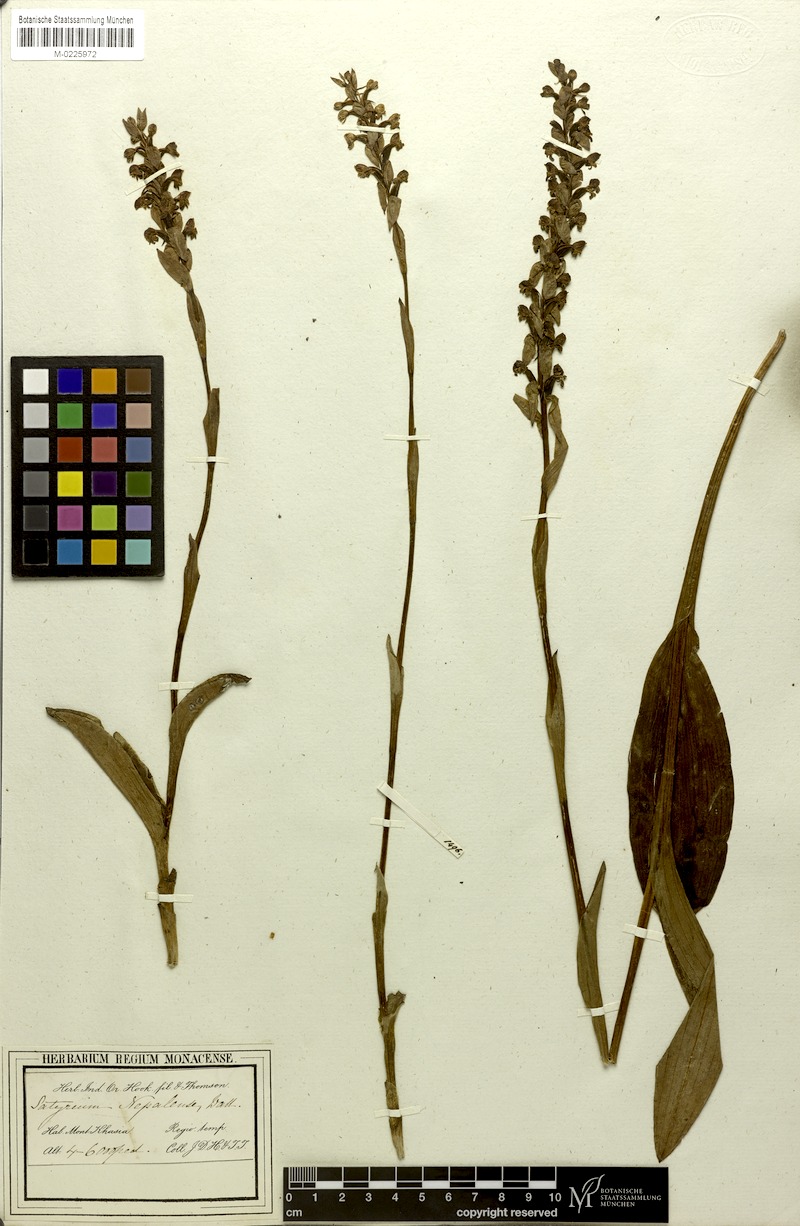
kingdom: Plantae
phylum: Tracheophyta
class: Liliopsida
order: Asparagales
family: Orchidaceae
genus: Satyrium
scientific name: Satyrium nepalense
